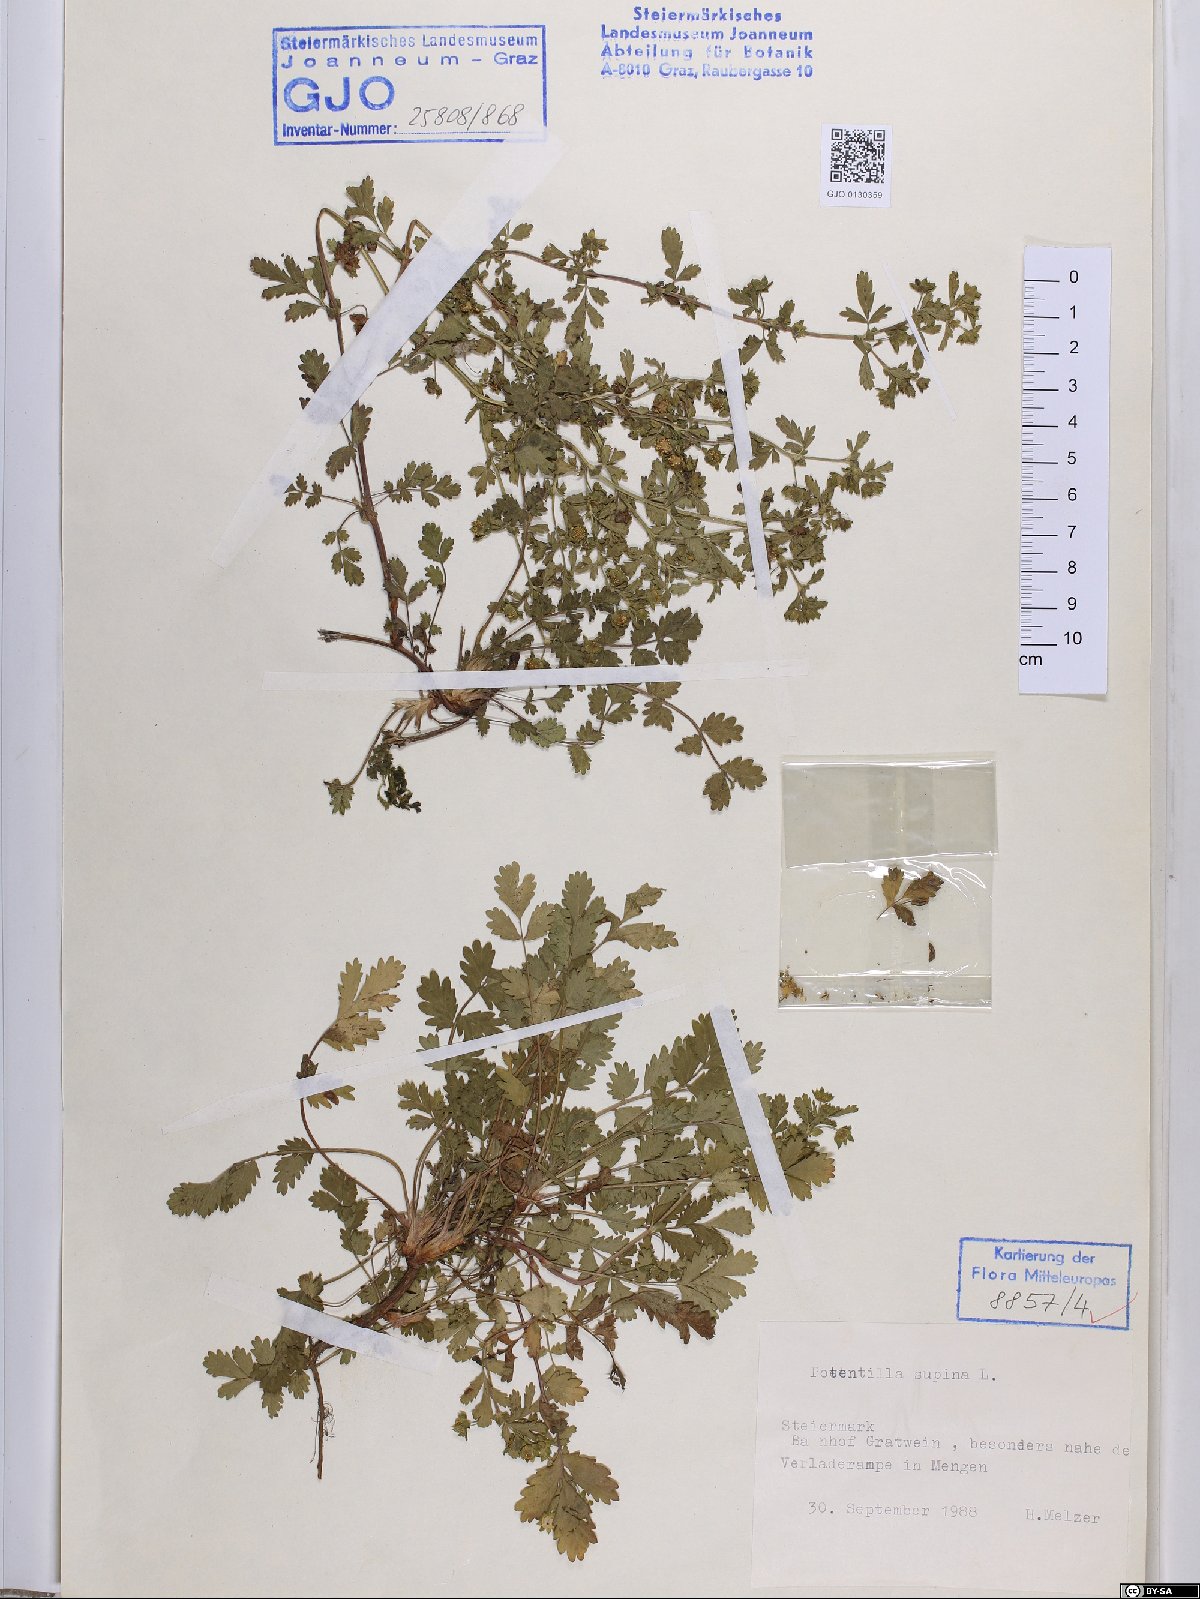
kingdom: Plantae
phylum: Tracheophyta
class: Magnoliopsida
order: Rosales
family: Rosaceae
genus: Potentilla
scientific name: Potentilla supina
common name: Prostrate cinquefoil
